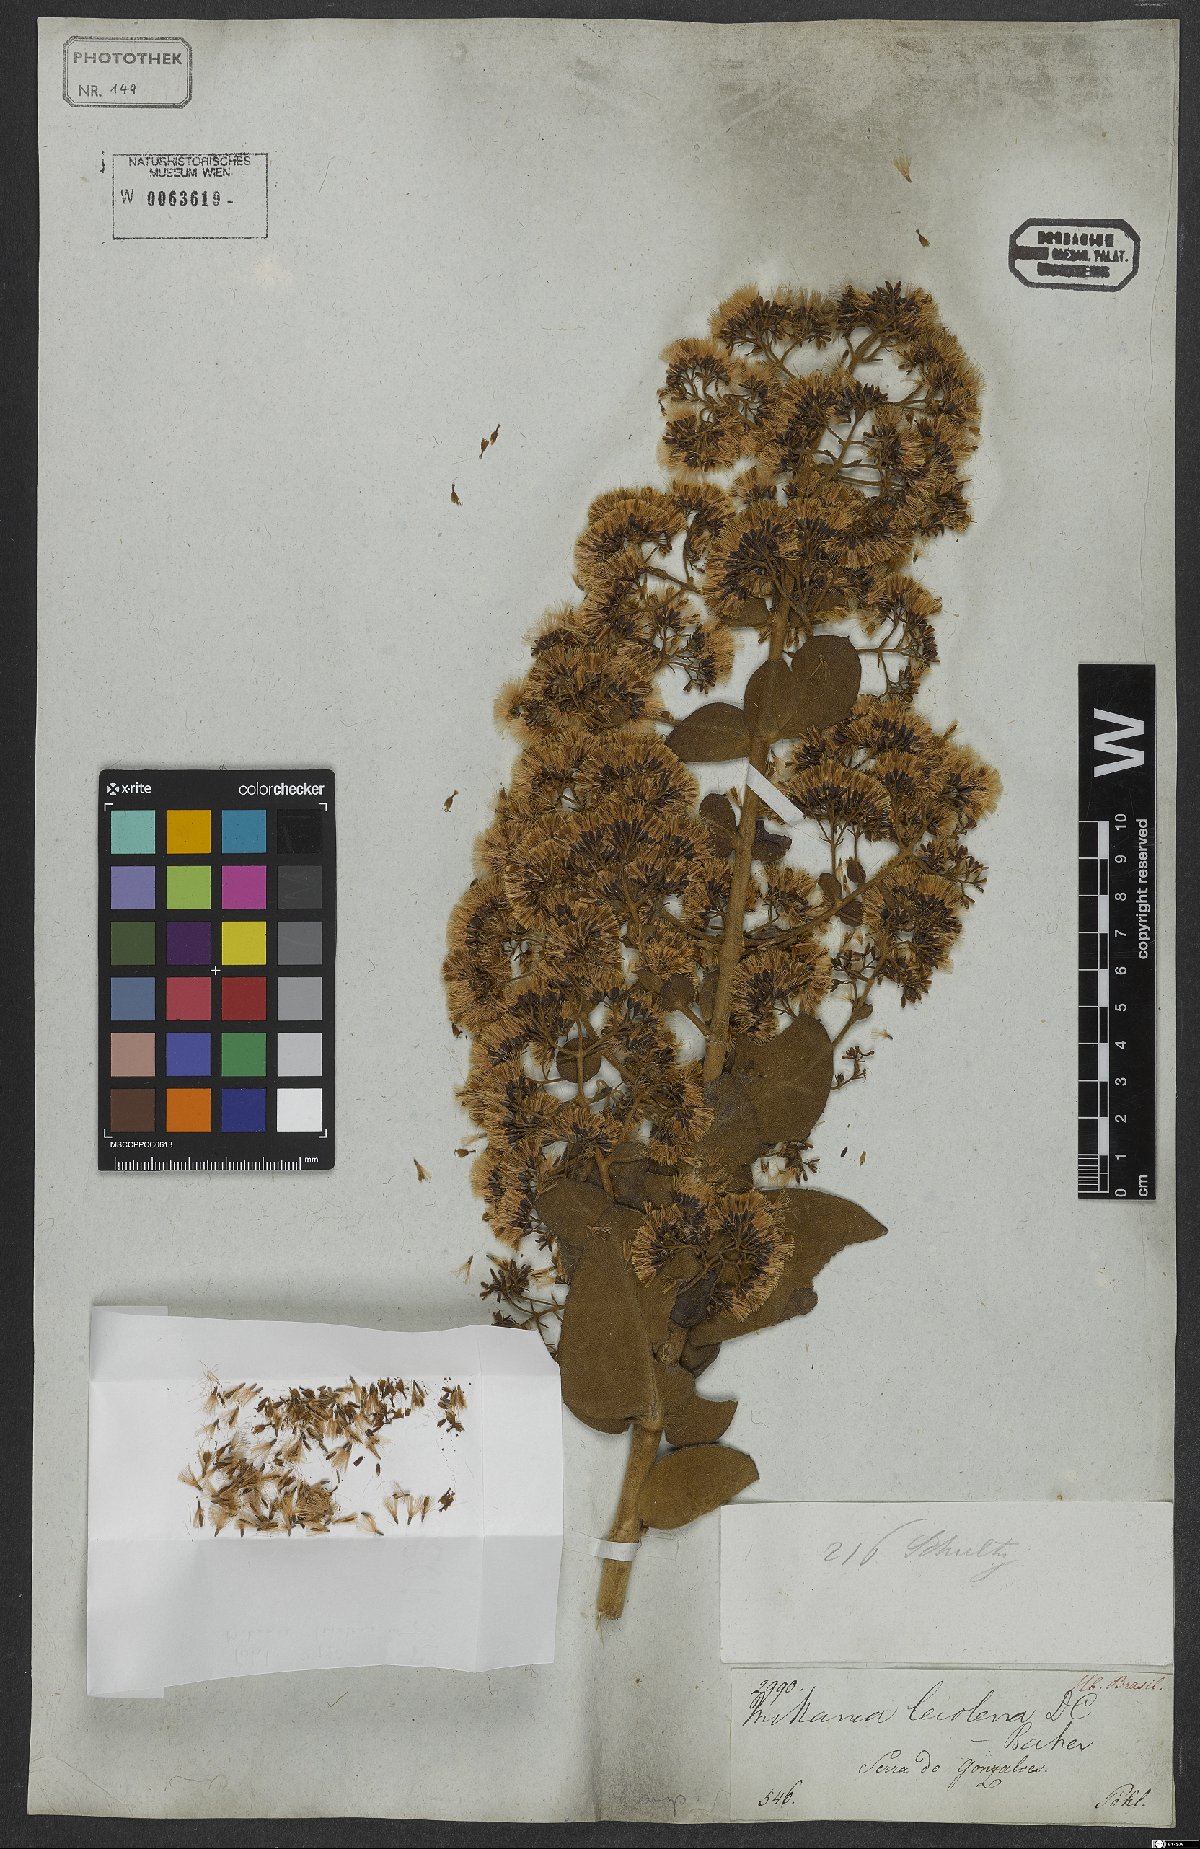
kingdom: Plantae
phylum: Tracheophyta
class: Magnoliopsida
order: Asterales
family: Asteraceae
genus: Mikania
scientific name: Mikania leiolaena
